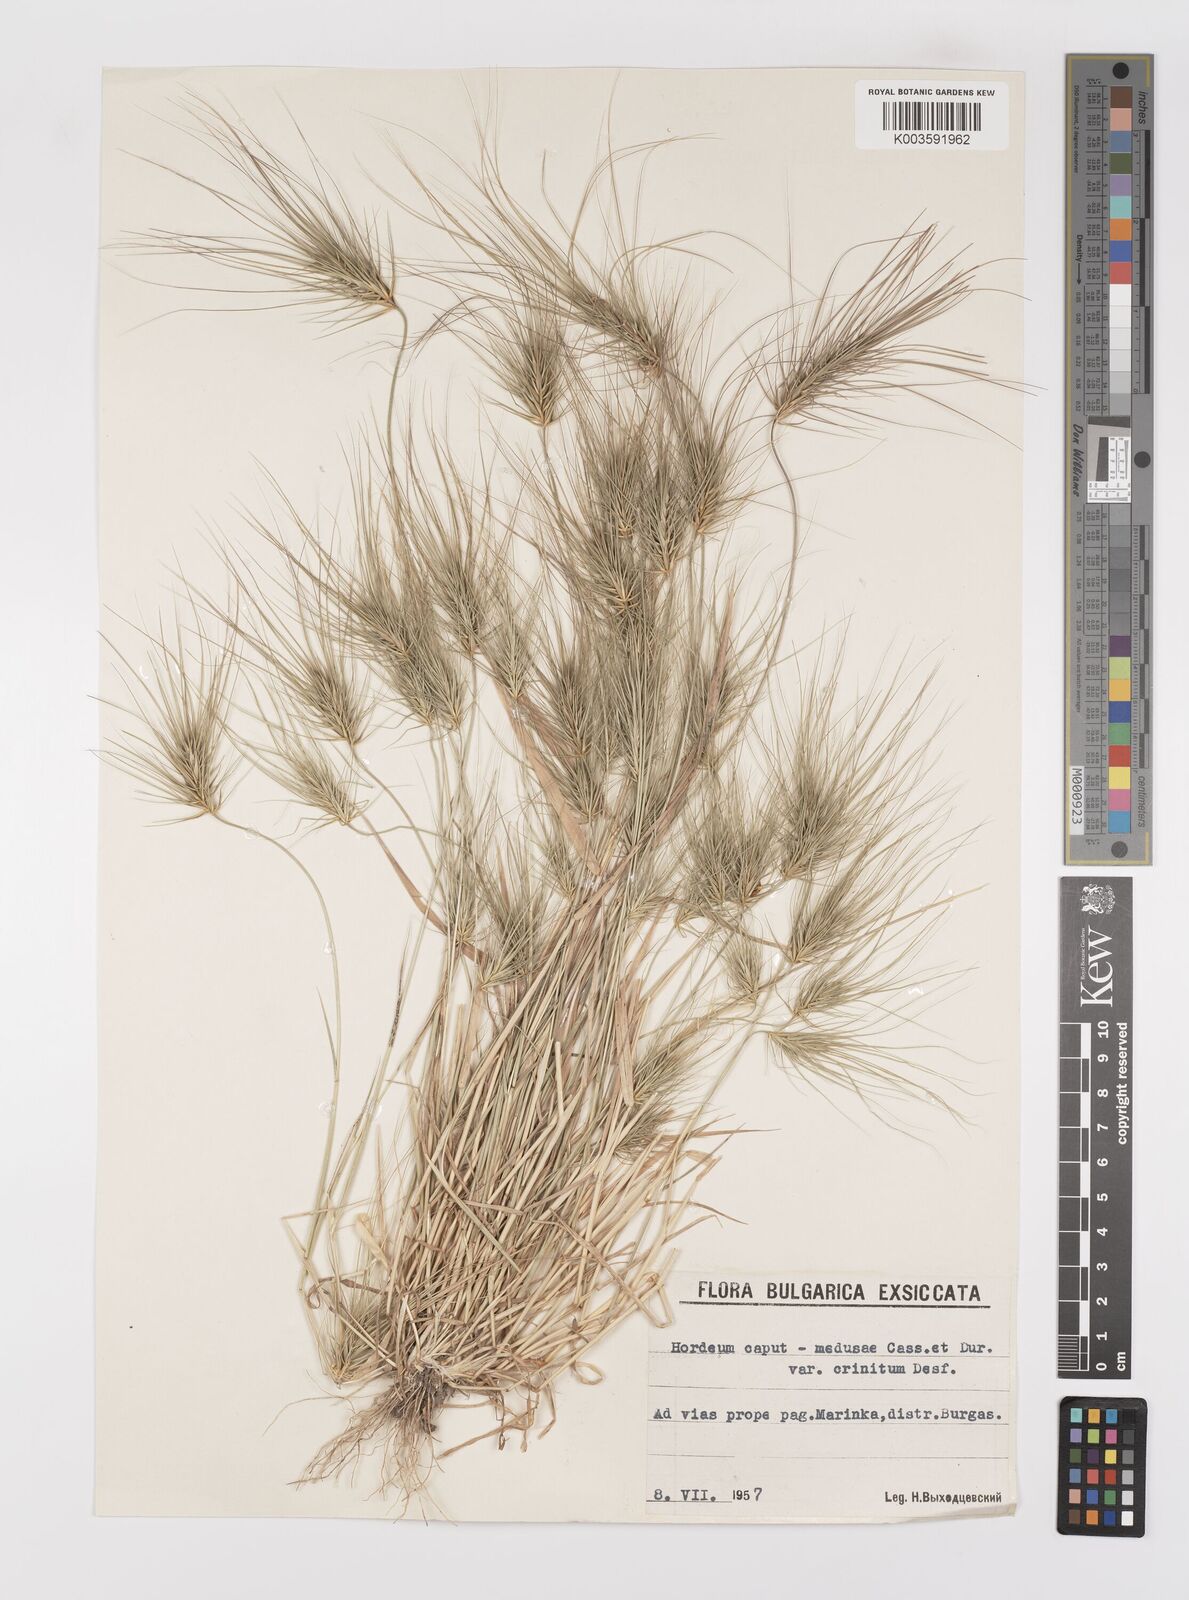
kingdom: Plantae
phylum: Tracheophyta
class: Liliopsida
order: Poales
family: Poaceae
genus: Taeniatherum
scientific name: Taeniatherum caput-medusae
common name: Medusahead
